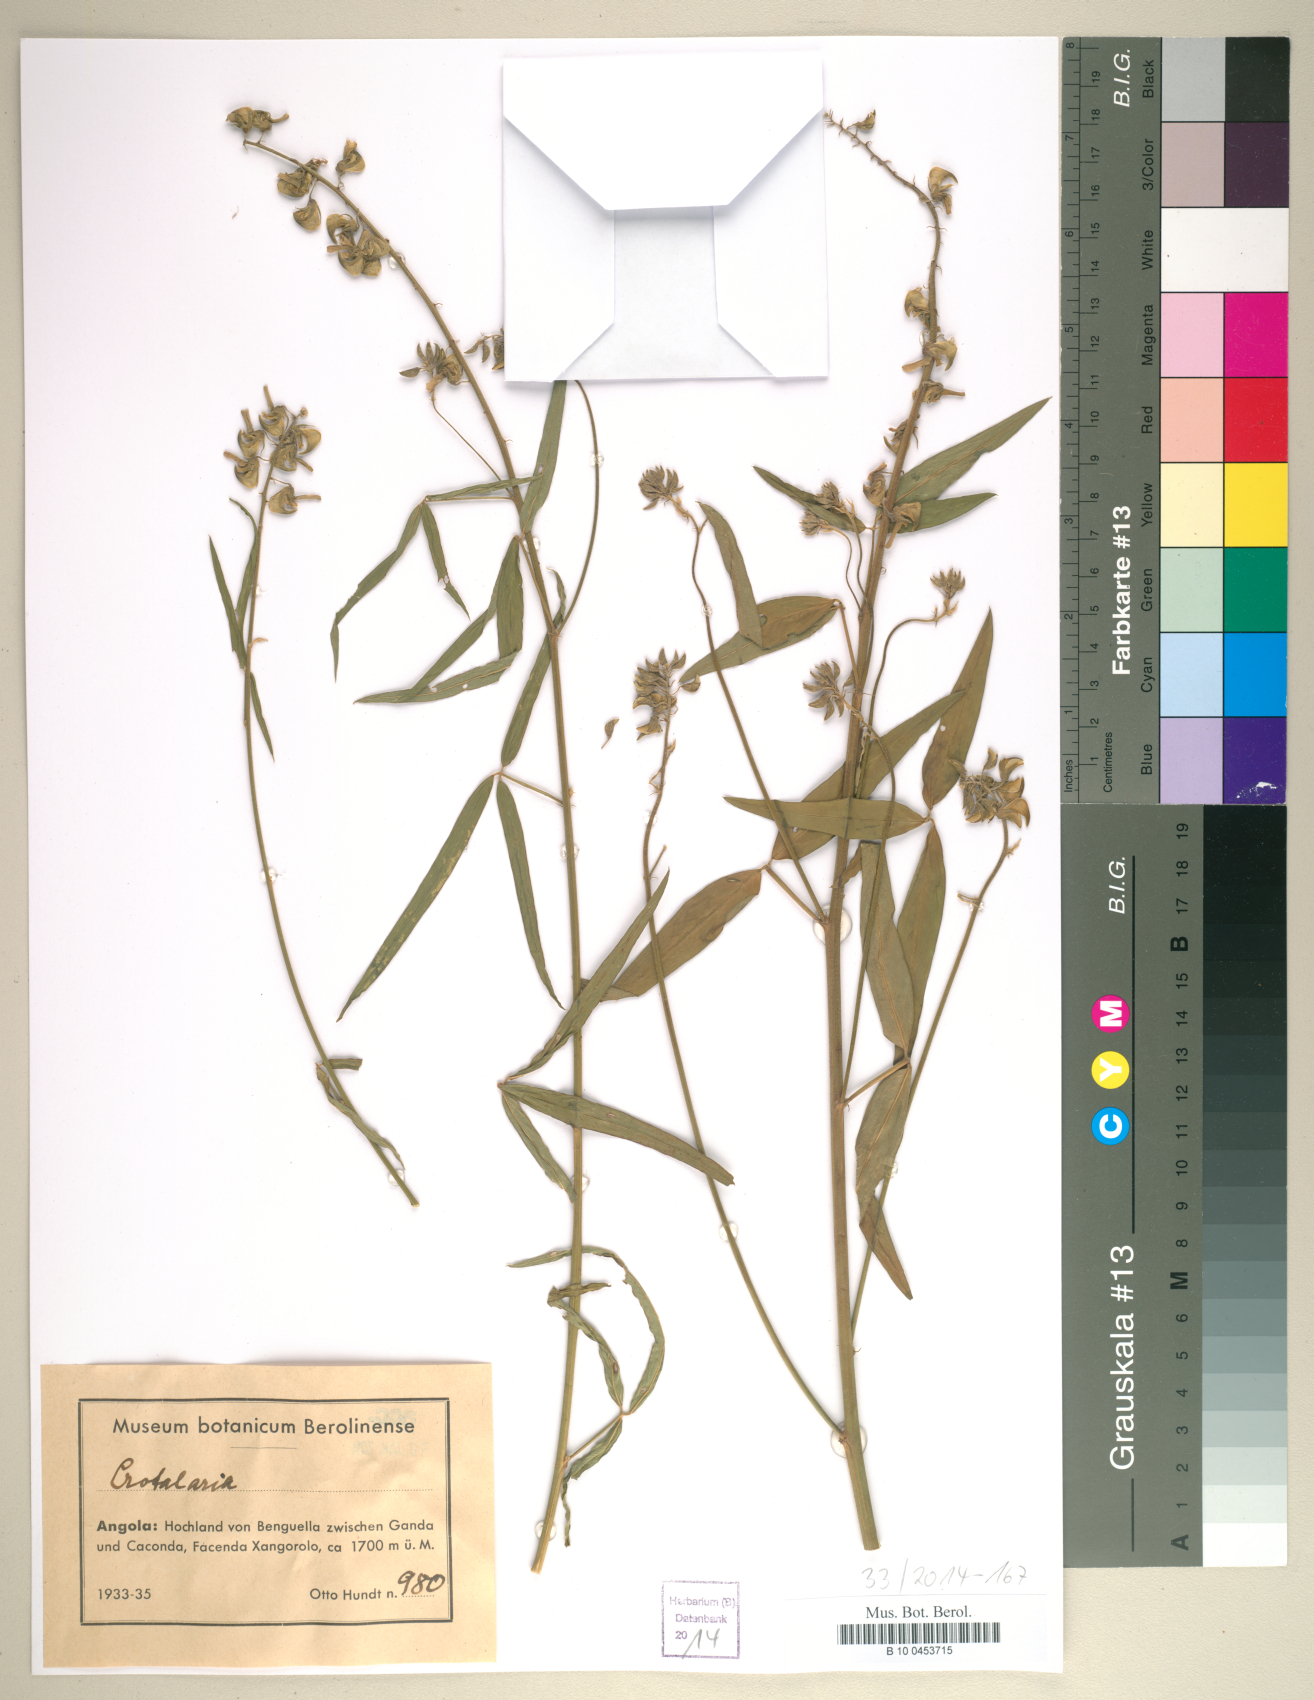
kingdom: Plantae
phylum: Tracheophyta
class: Magnoliopsida
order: Fabales
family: Fabaceae
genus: Crotalaria
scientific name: Crotalaria
